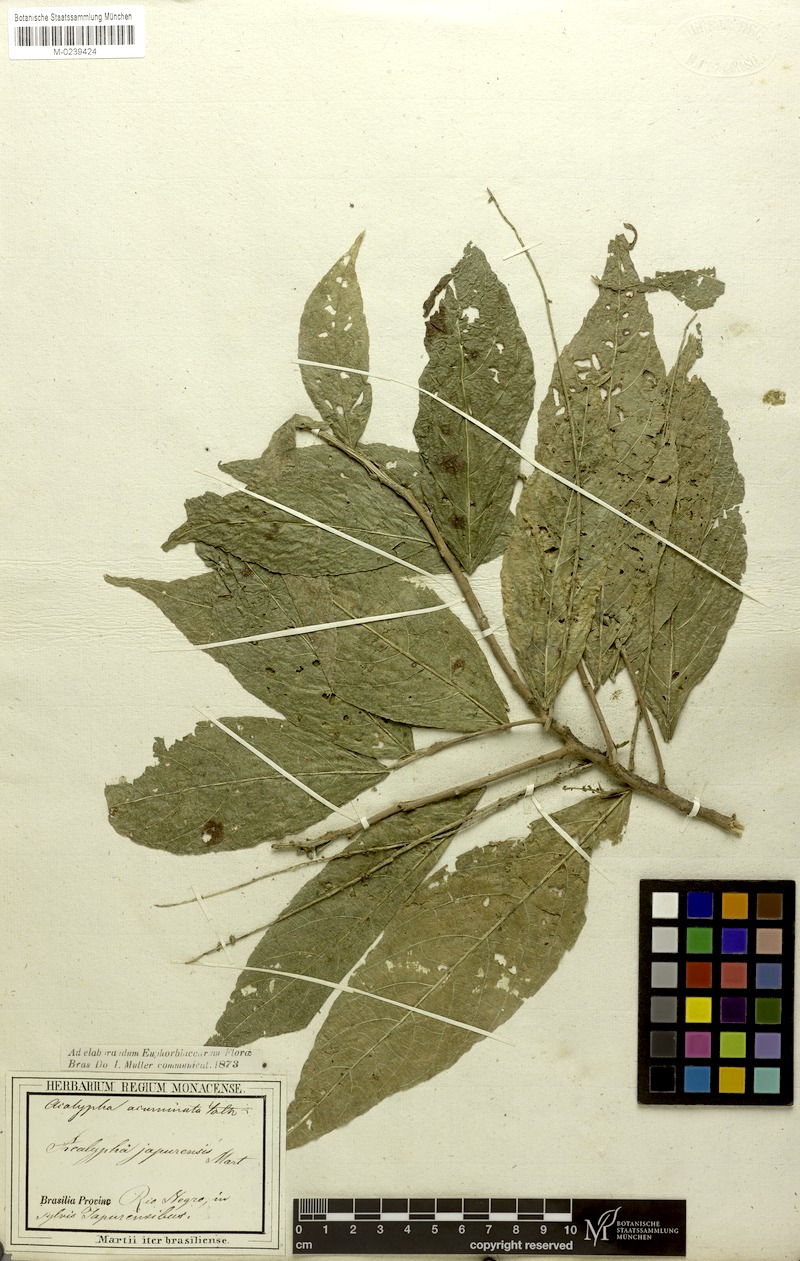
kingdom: Plantae
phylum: Tracheophyta
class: Magnoliopsida
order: Malpighiales
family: Euphorbiaceae
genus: Acalypha
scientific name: Acalypha acuminata
